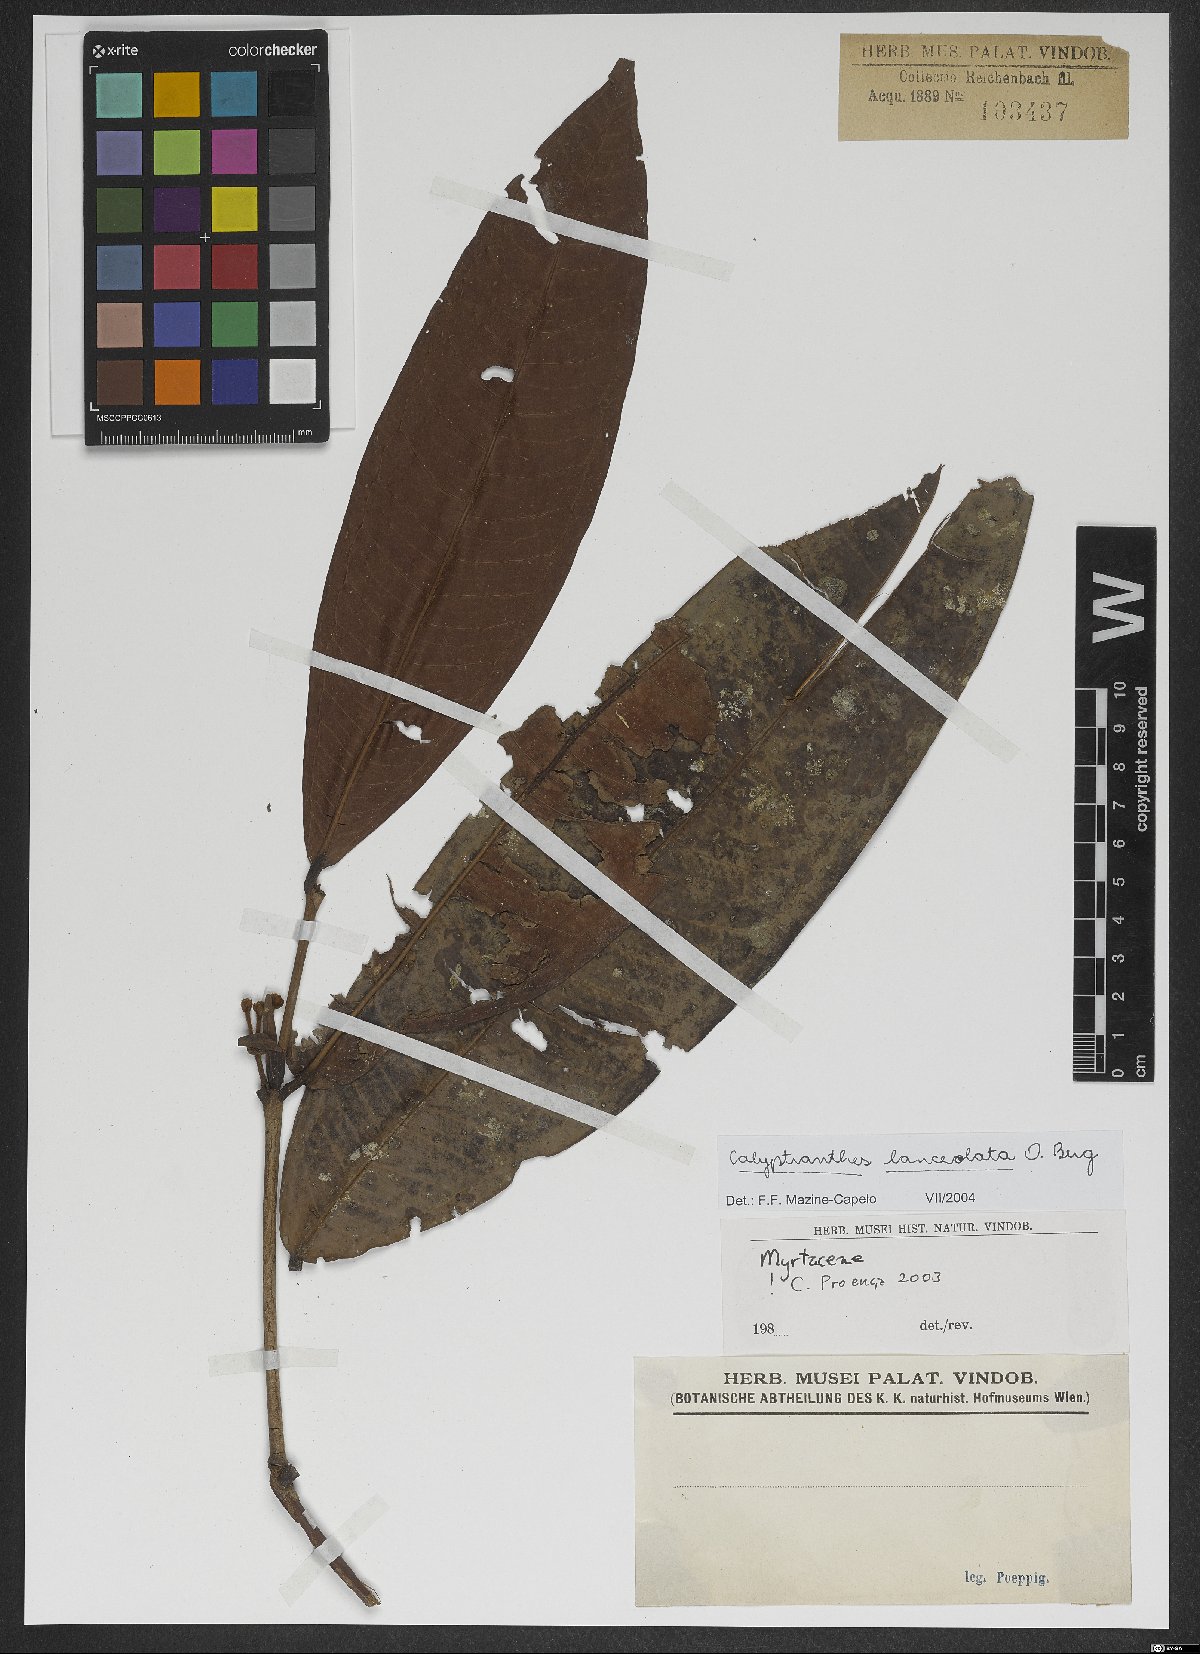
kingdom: Plantae
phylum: Tracheophyta
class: Magnoliopsida
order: Myrtales
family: Myrtaceae
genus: Myrcia
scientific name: Myrcia lonchophylla
